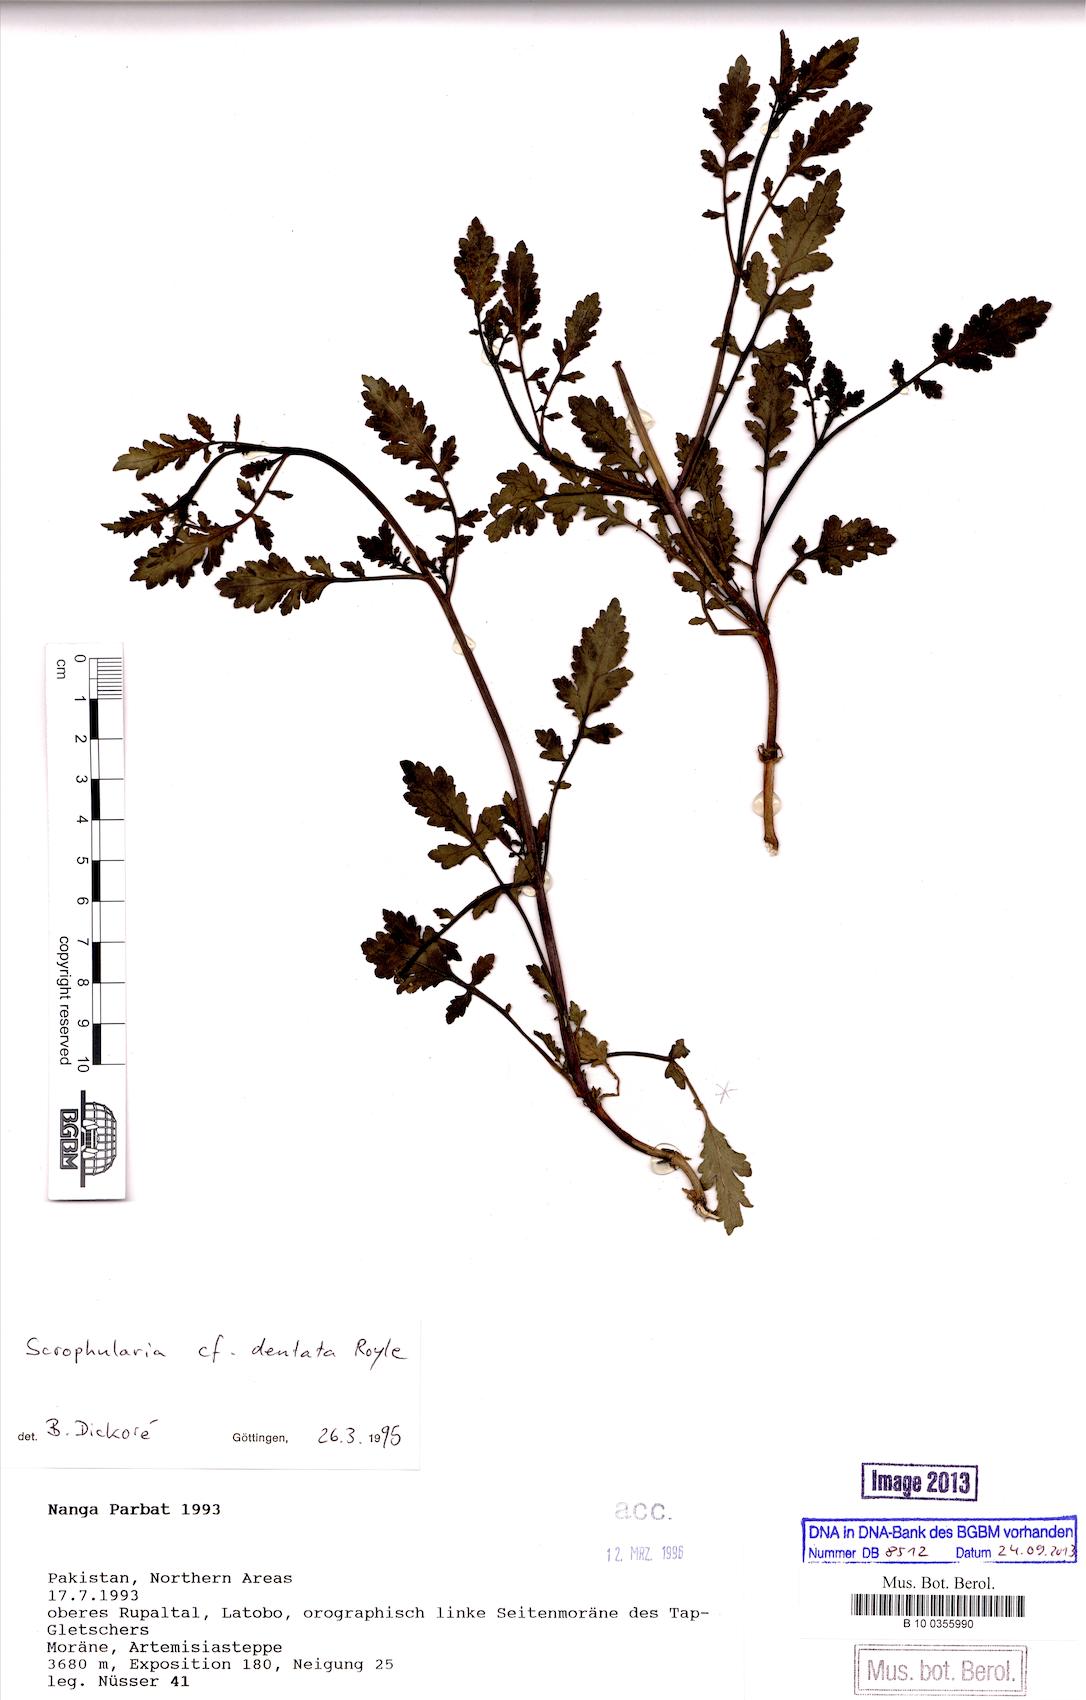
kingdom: Plantae
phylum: Tracheophyta
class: Magnoliopsida
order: Lamiales
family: Scrophulariaceae
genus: Scrophularia
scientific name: Scrophularia dentata
